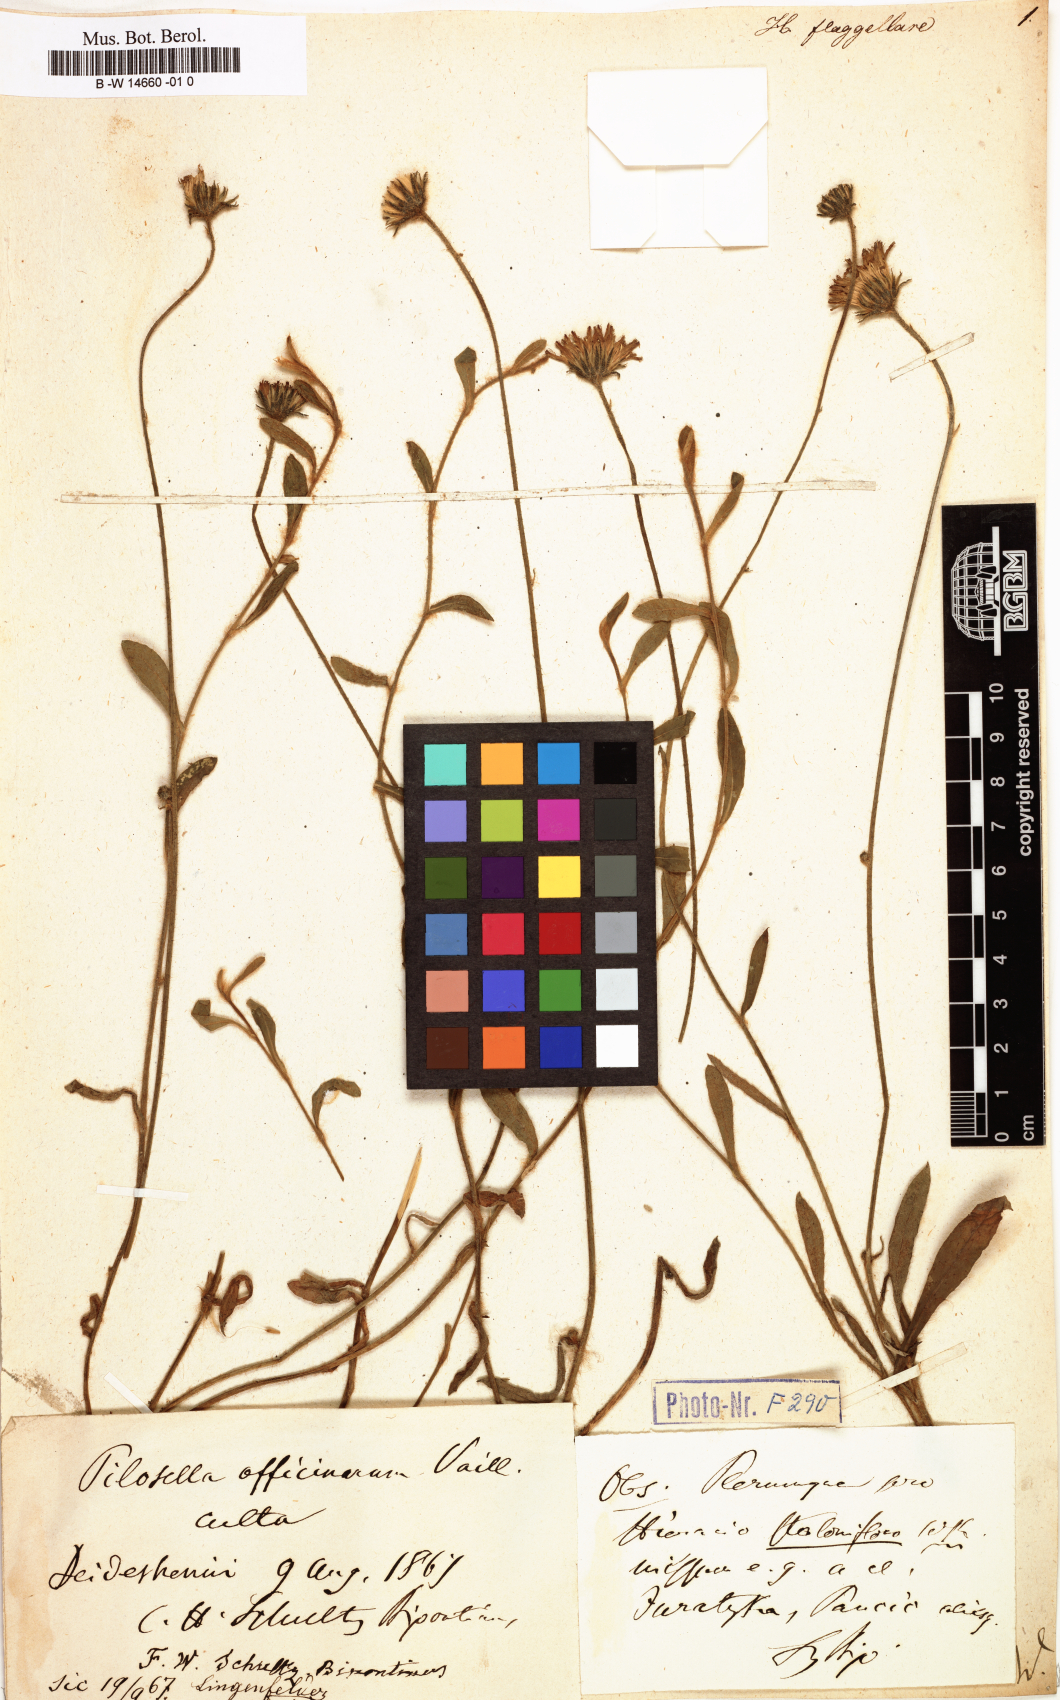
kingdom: Plantae
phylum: Tracheophyta
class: Magnoliopsida
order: Asterales
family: Asteraceae
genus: Hieracium
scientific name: Hieracium flagellare
